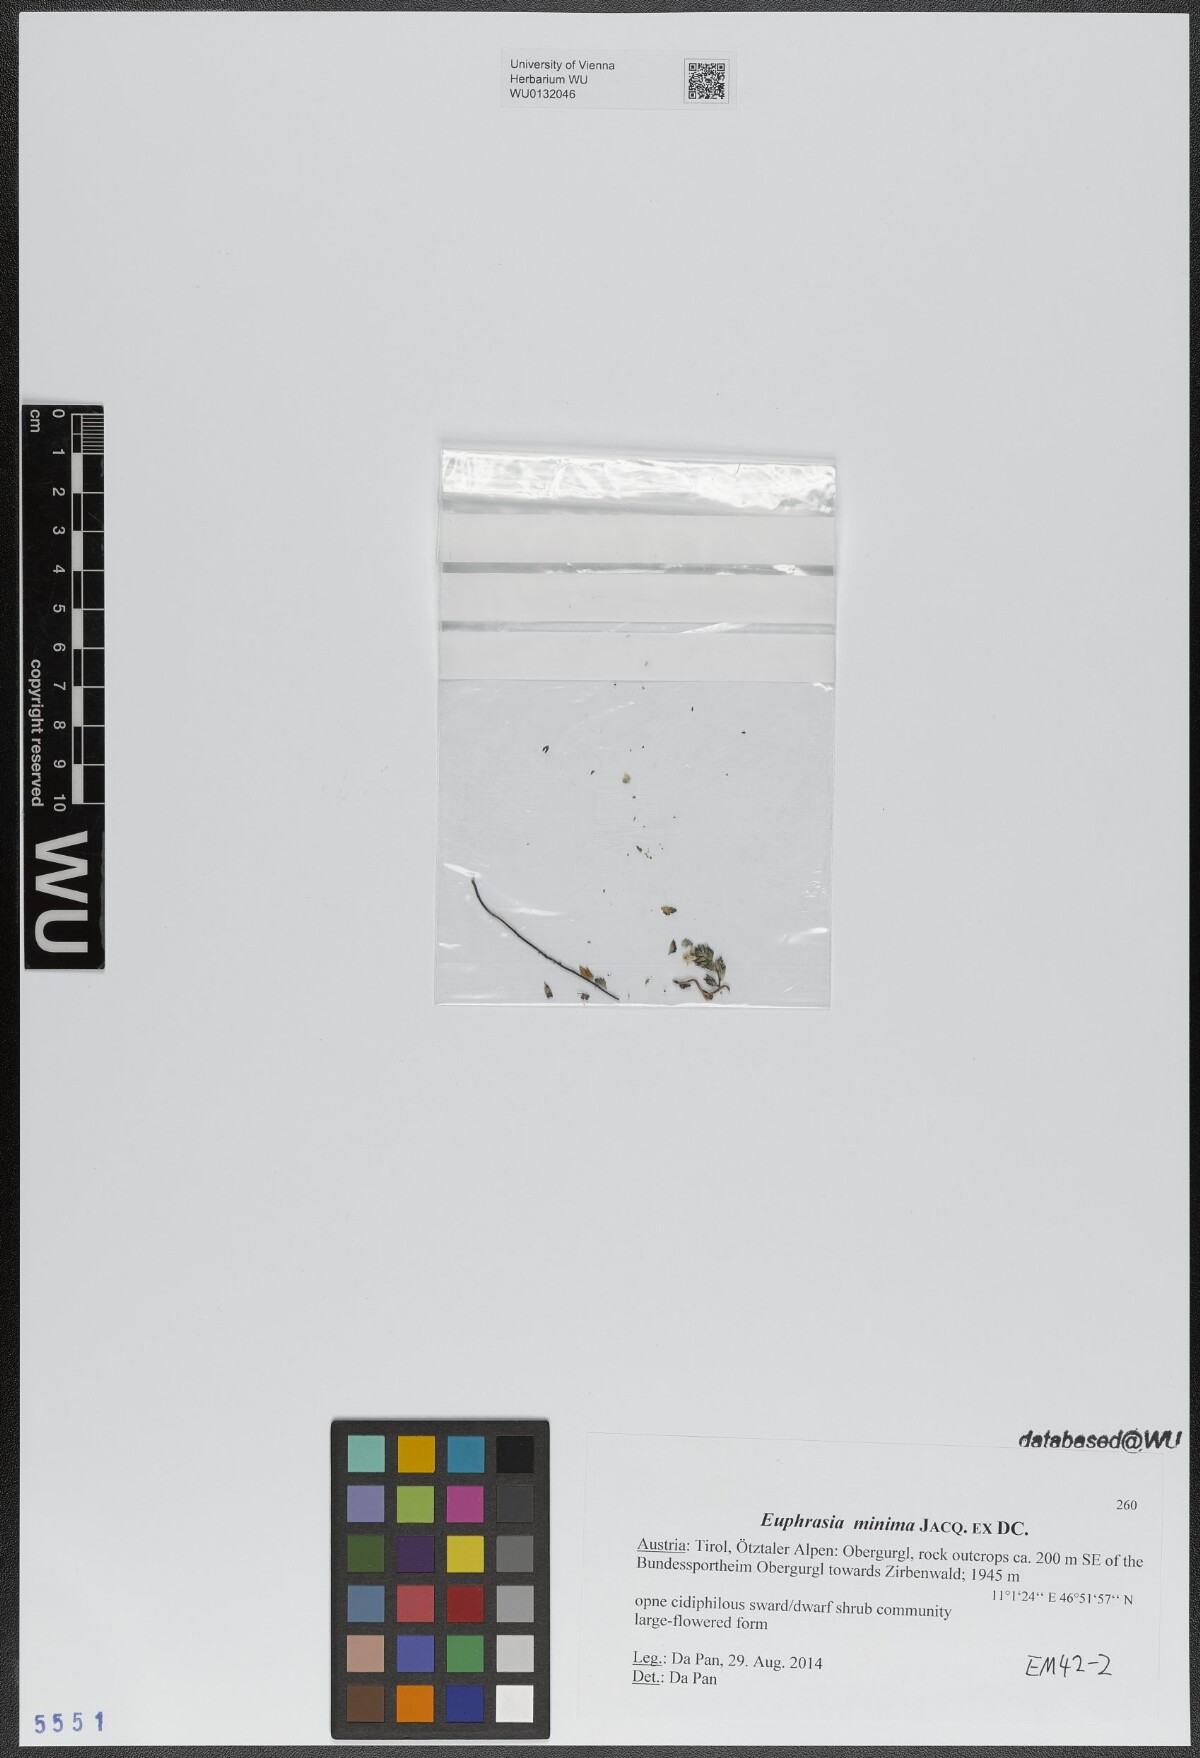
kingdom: Plantae
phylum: Tracheophyta
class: Magnoliopsida
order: Lamiales
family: Orobanchaceae
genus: Euphrasia
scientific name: Euphrasia minima
